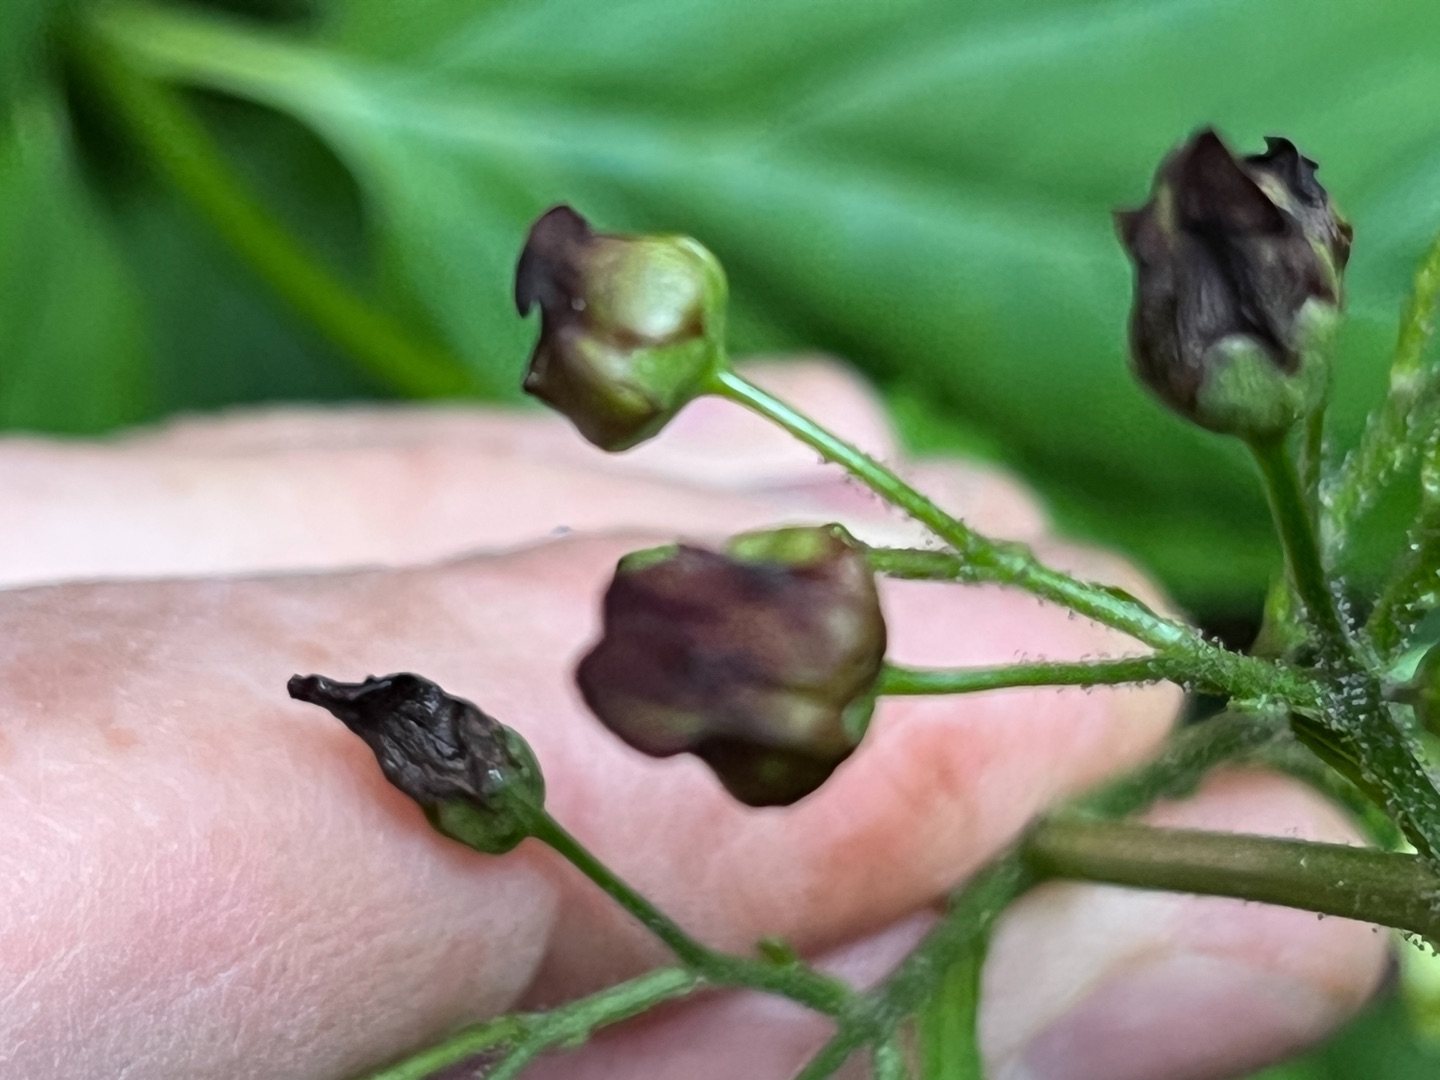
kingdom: Animalia
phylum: Arthropoda
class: Insecta
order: Diptera
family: Cecidomyiidae
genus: Contarinia
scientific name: Contarinia scrophulariae
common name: Brunrodsgalmyg
